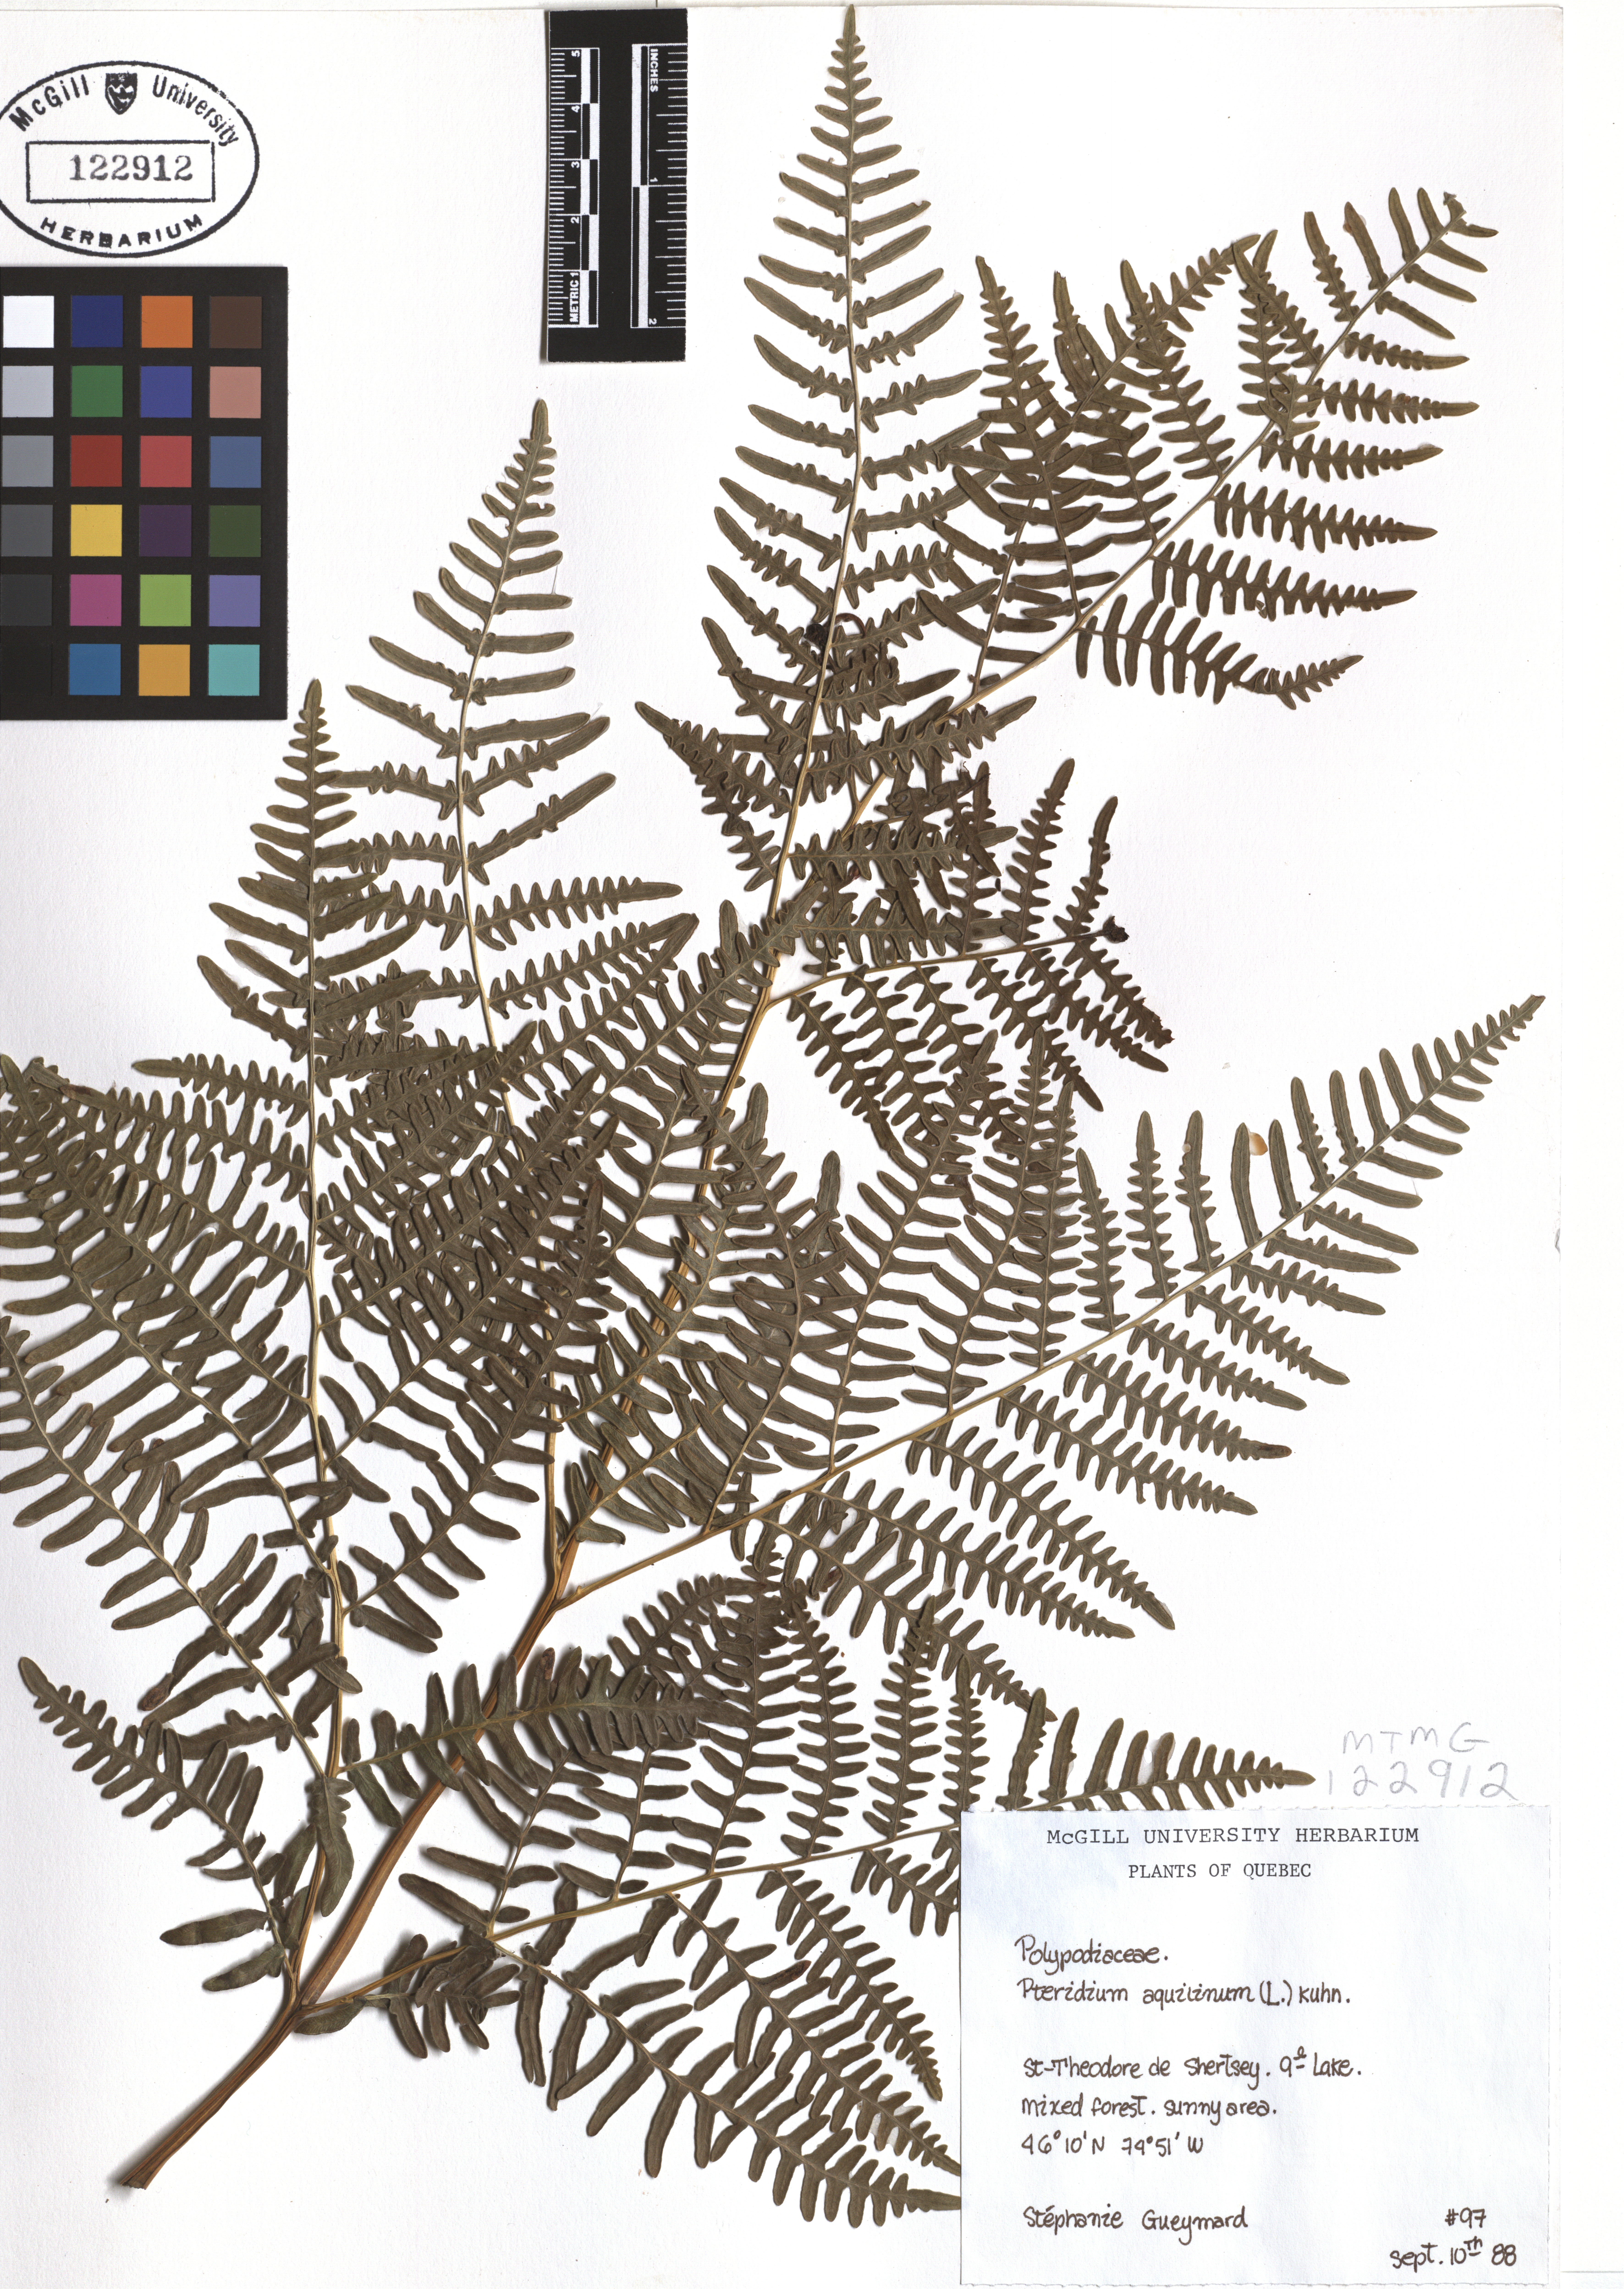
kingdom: Plantae
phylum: Tracheophyta
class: Polypodiopsida
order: Polypodiales
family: Dennstaedtiaceae
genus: Pteridium
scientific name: Pteridium aquilinum
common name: Bracken
